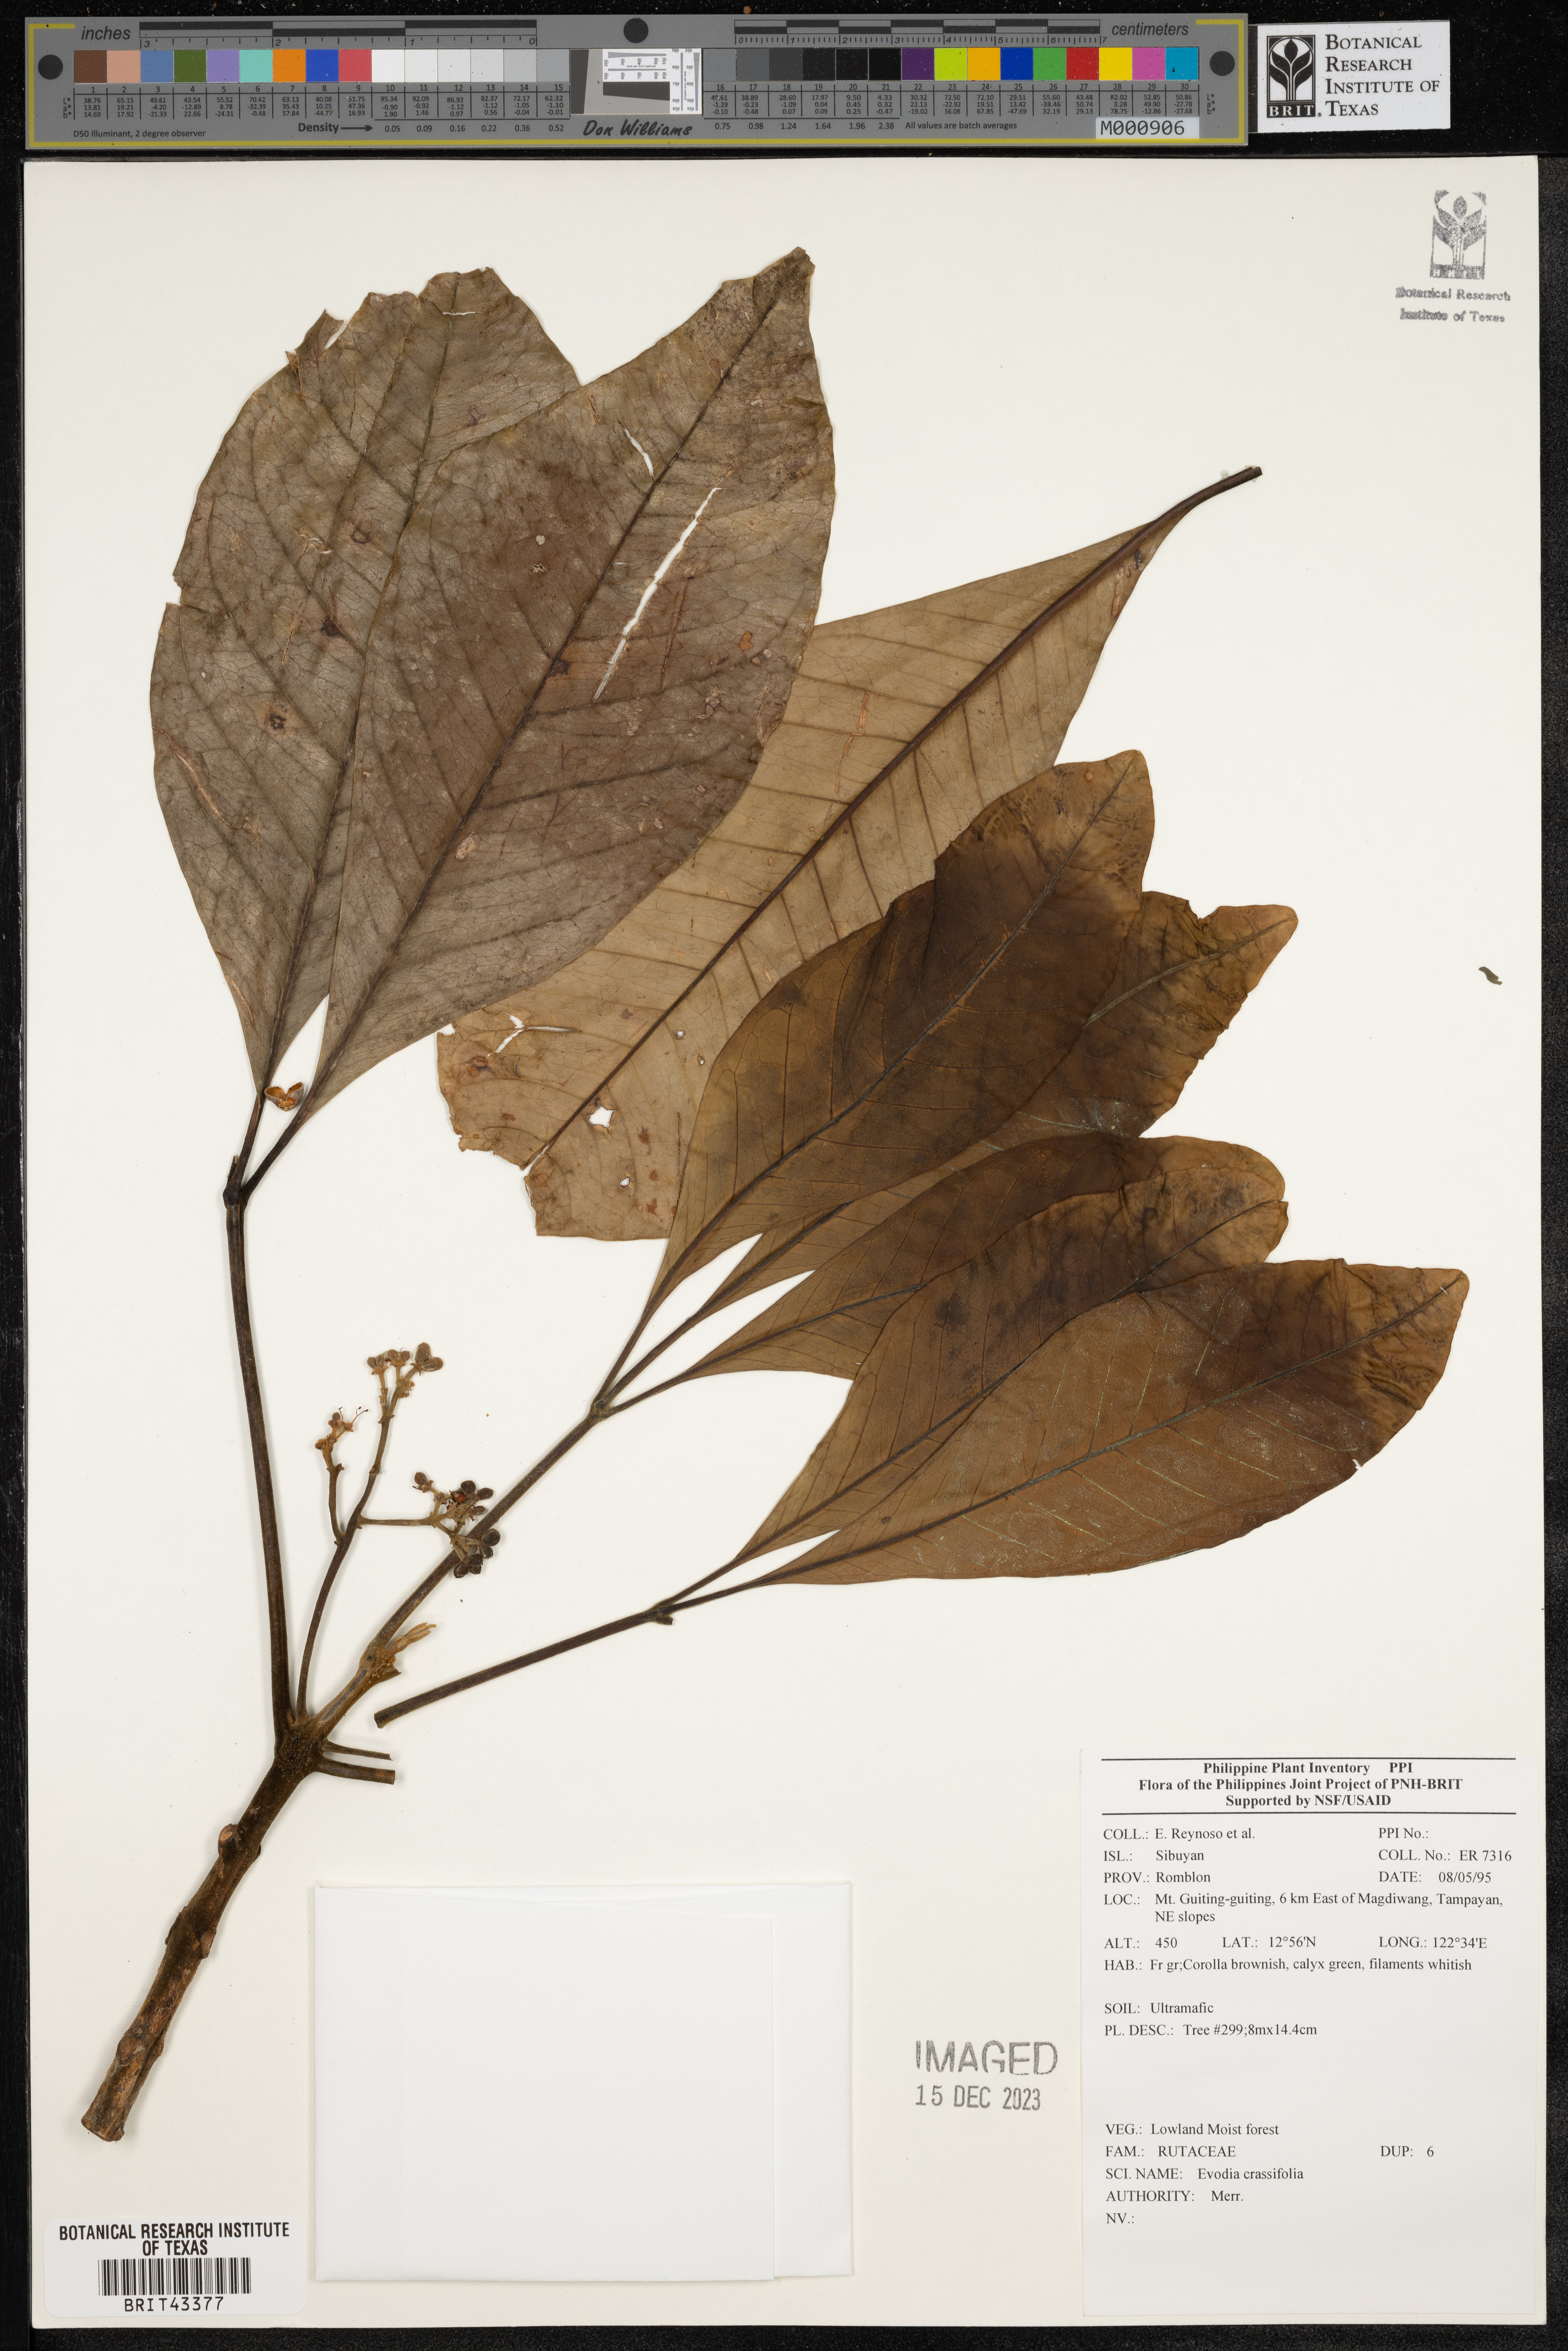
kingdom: Plantae
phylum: Tracheophyta
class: Magnoliopsida
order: Sapindales
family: Rutaceae
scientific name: Rutaceae
